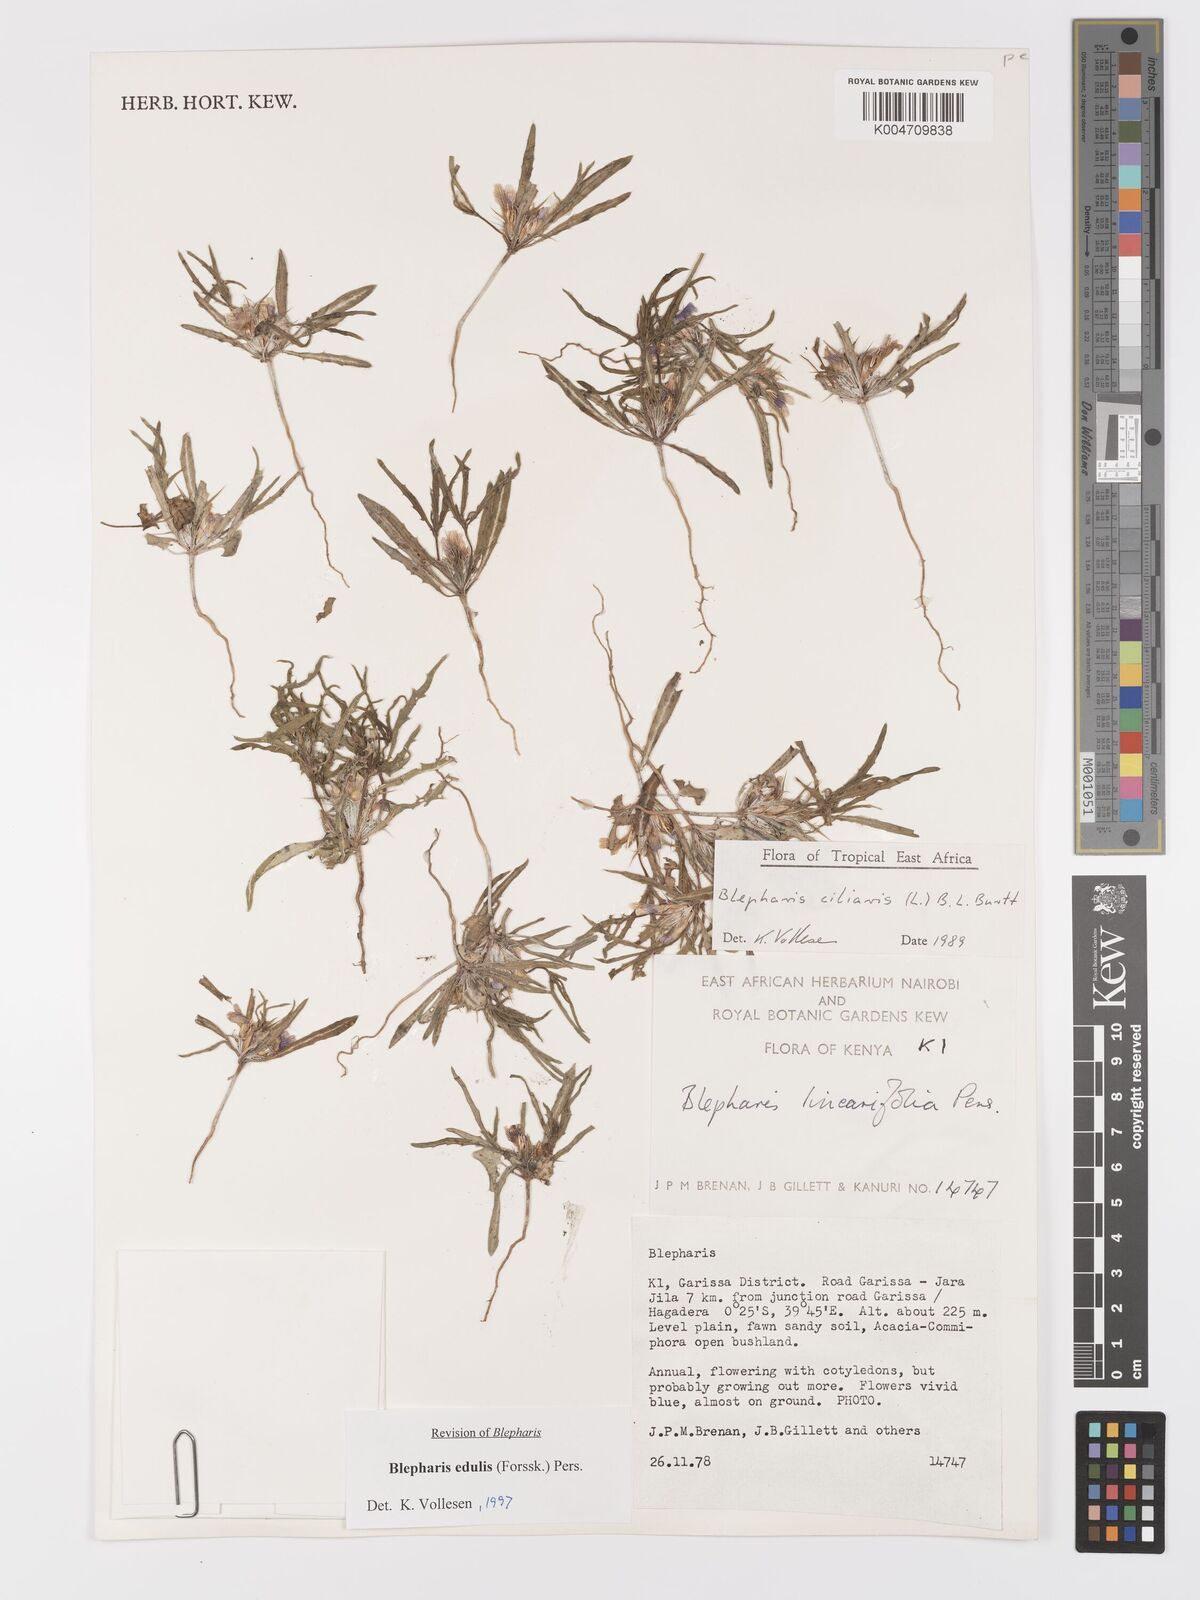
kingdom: Plantae
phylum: Tracheophyta
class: Magnoliopsida
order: Lamiales
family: Acanthaceae
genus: Blepharis
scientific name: Blepharis edulis
